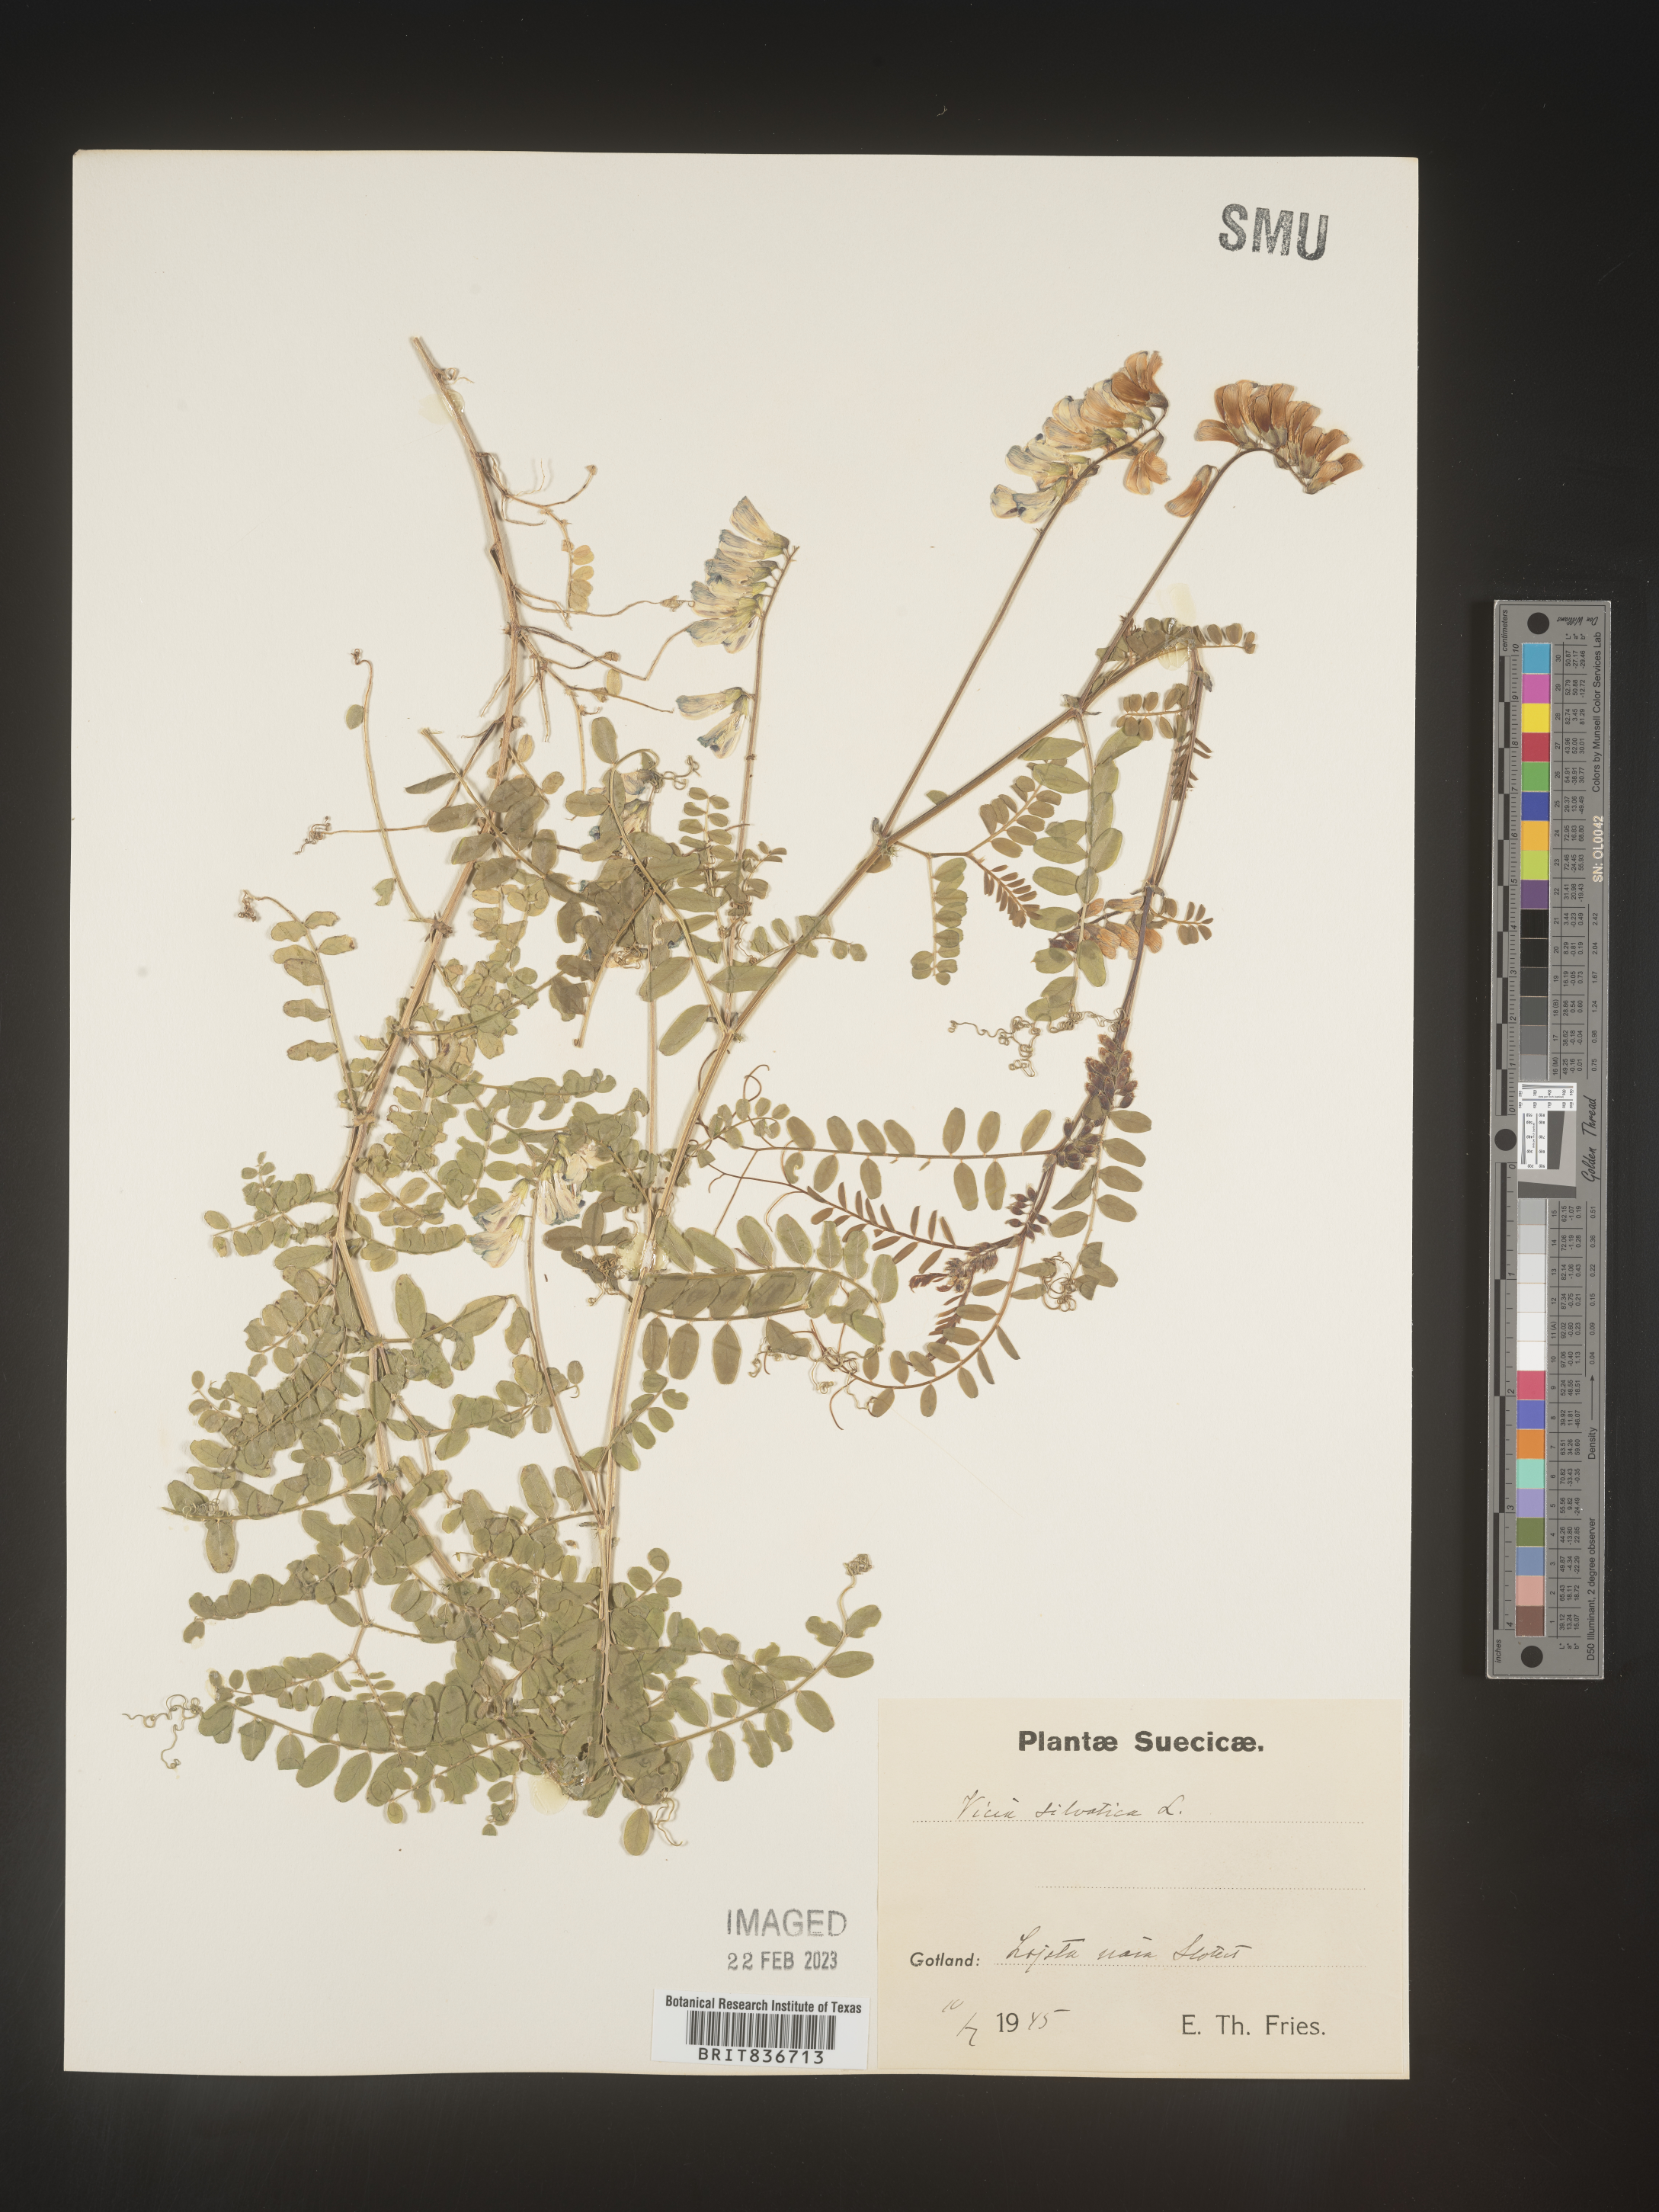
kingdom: Plantae
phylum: Tracheophyta
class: Magnoliopsida
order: Fabales
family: Fabaceae
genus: Vicia
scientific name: Vicia sylvatica
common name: Wood vetch
